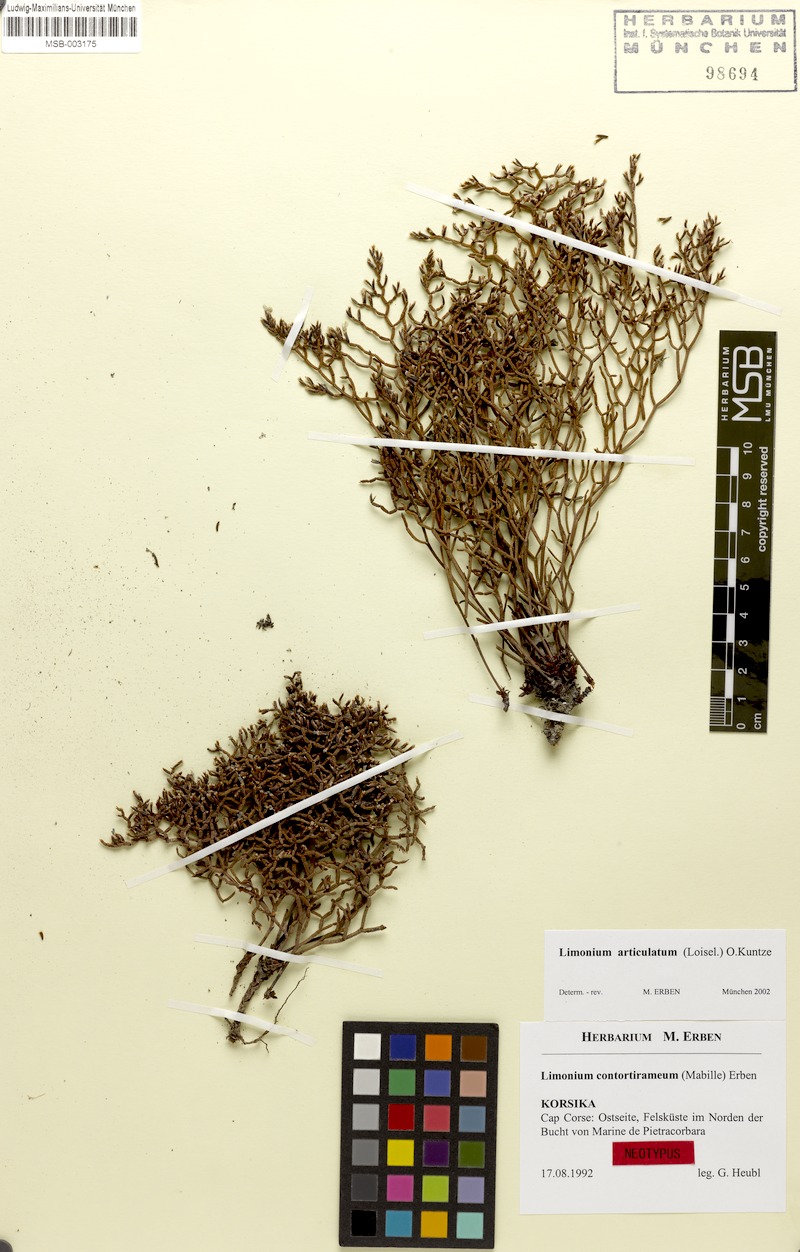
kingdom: Plantae
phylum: Tracheophyta
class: Magnoliopsida
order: Caryophyllales
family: Plumbaginaceae
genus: Limonium
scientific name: Limonium articulatum
